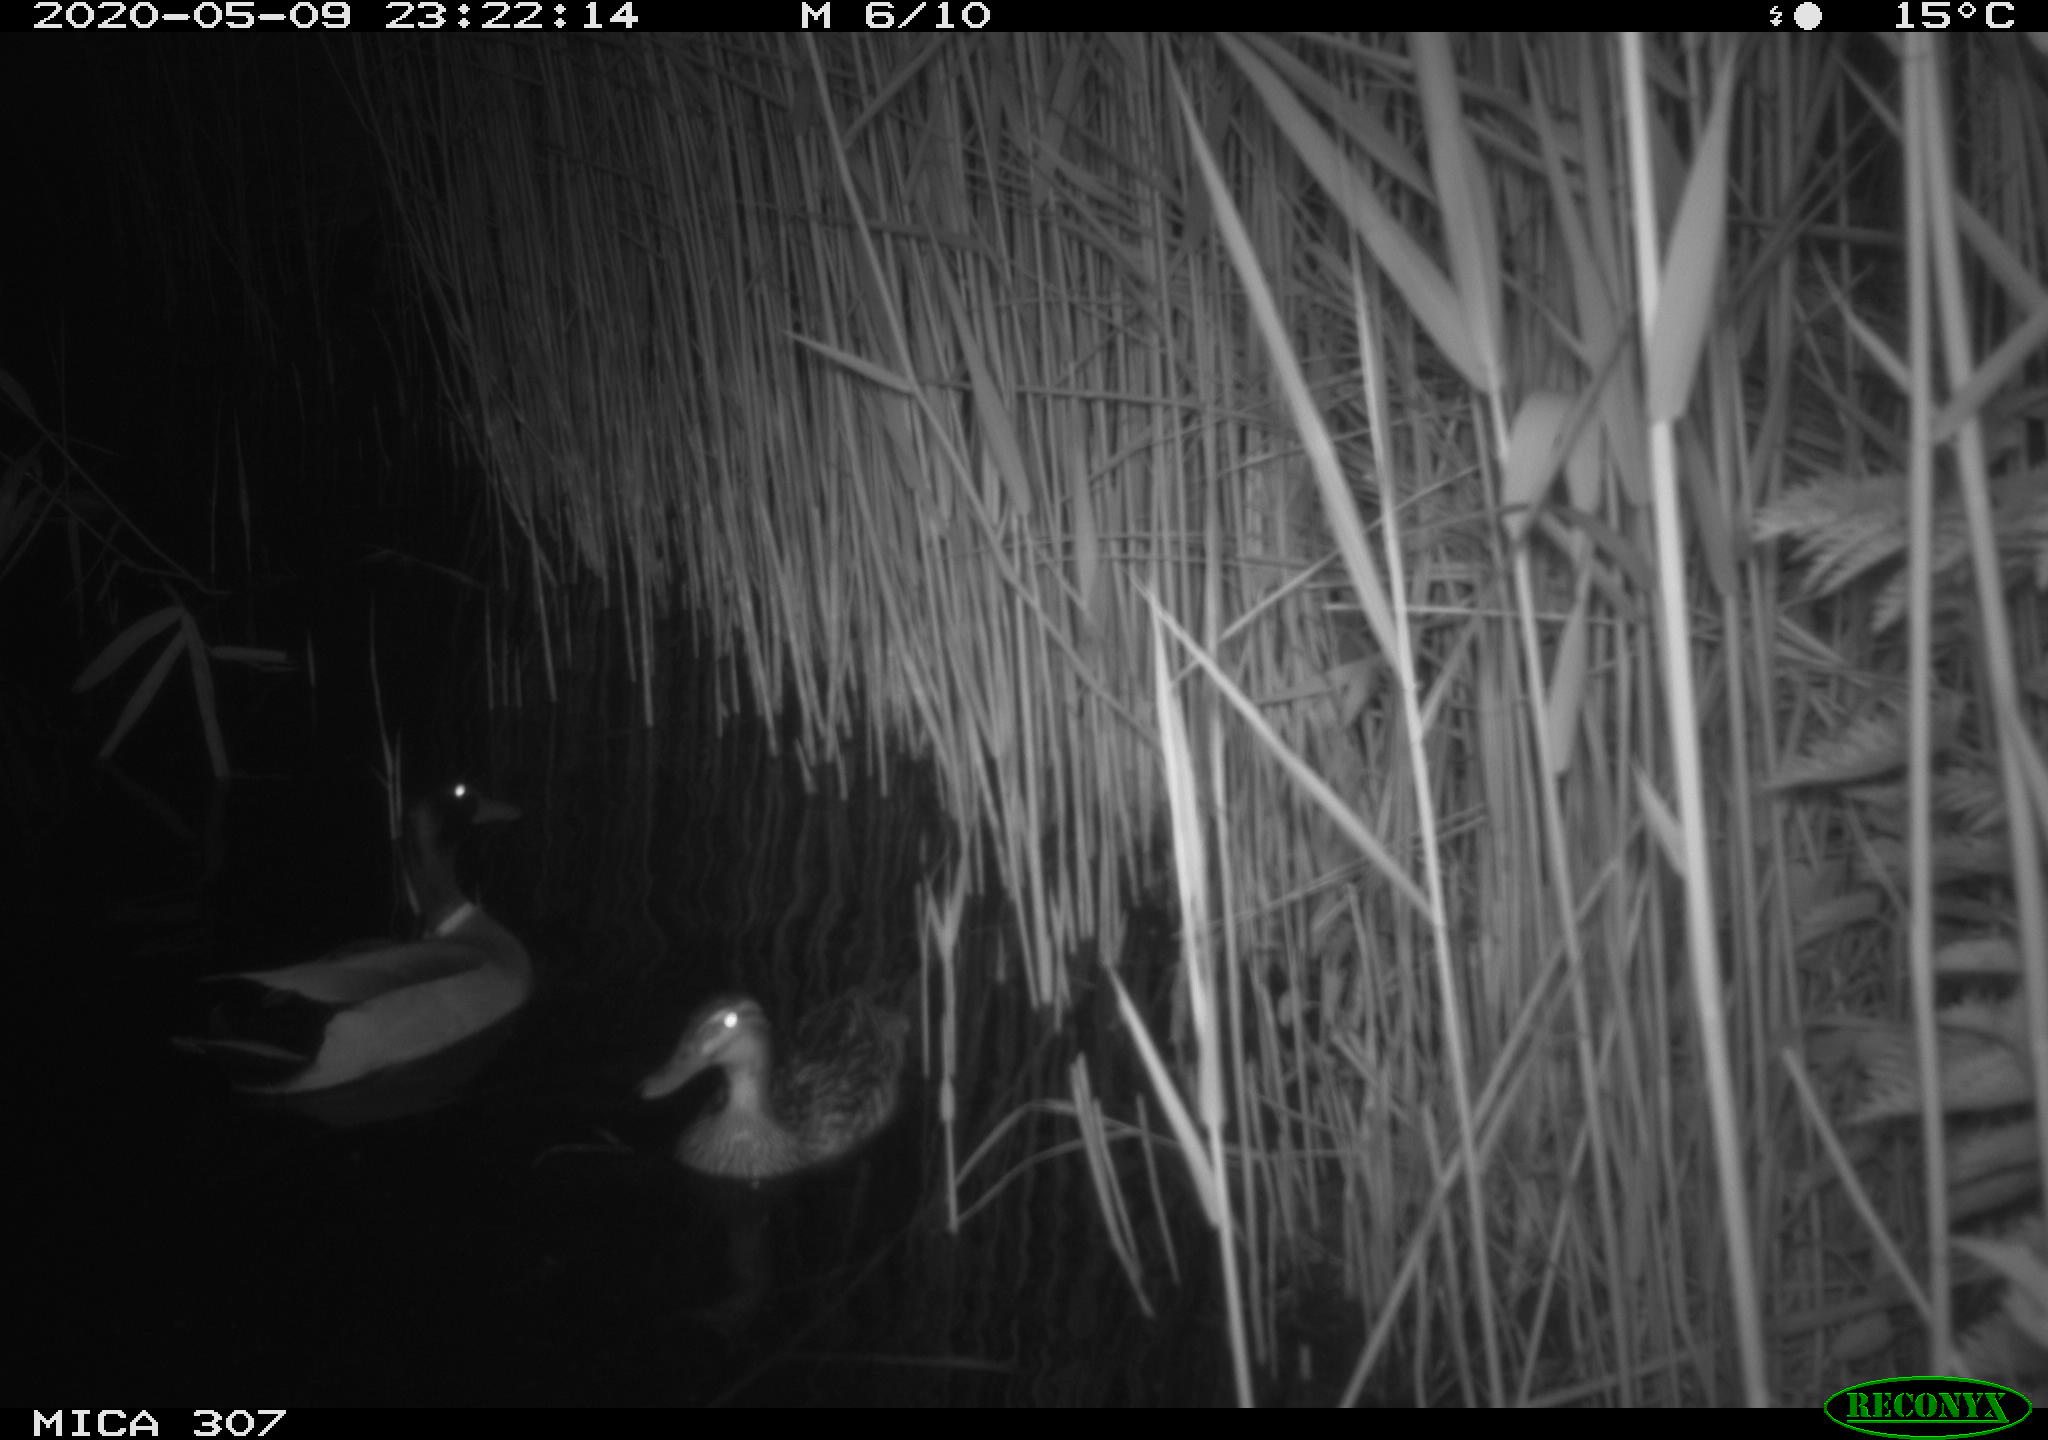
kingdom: Animalia
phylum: Chordata
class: Aves
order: Anseriformes
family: Anatidae
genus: Anas
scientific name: Anas platyrhynchos
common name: Mallard
